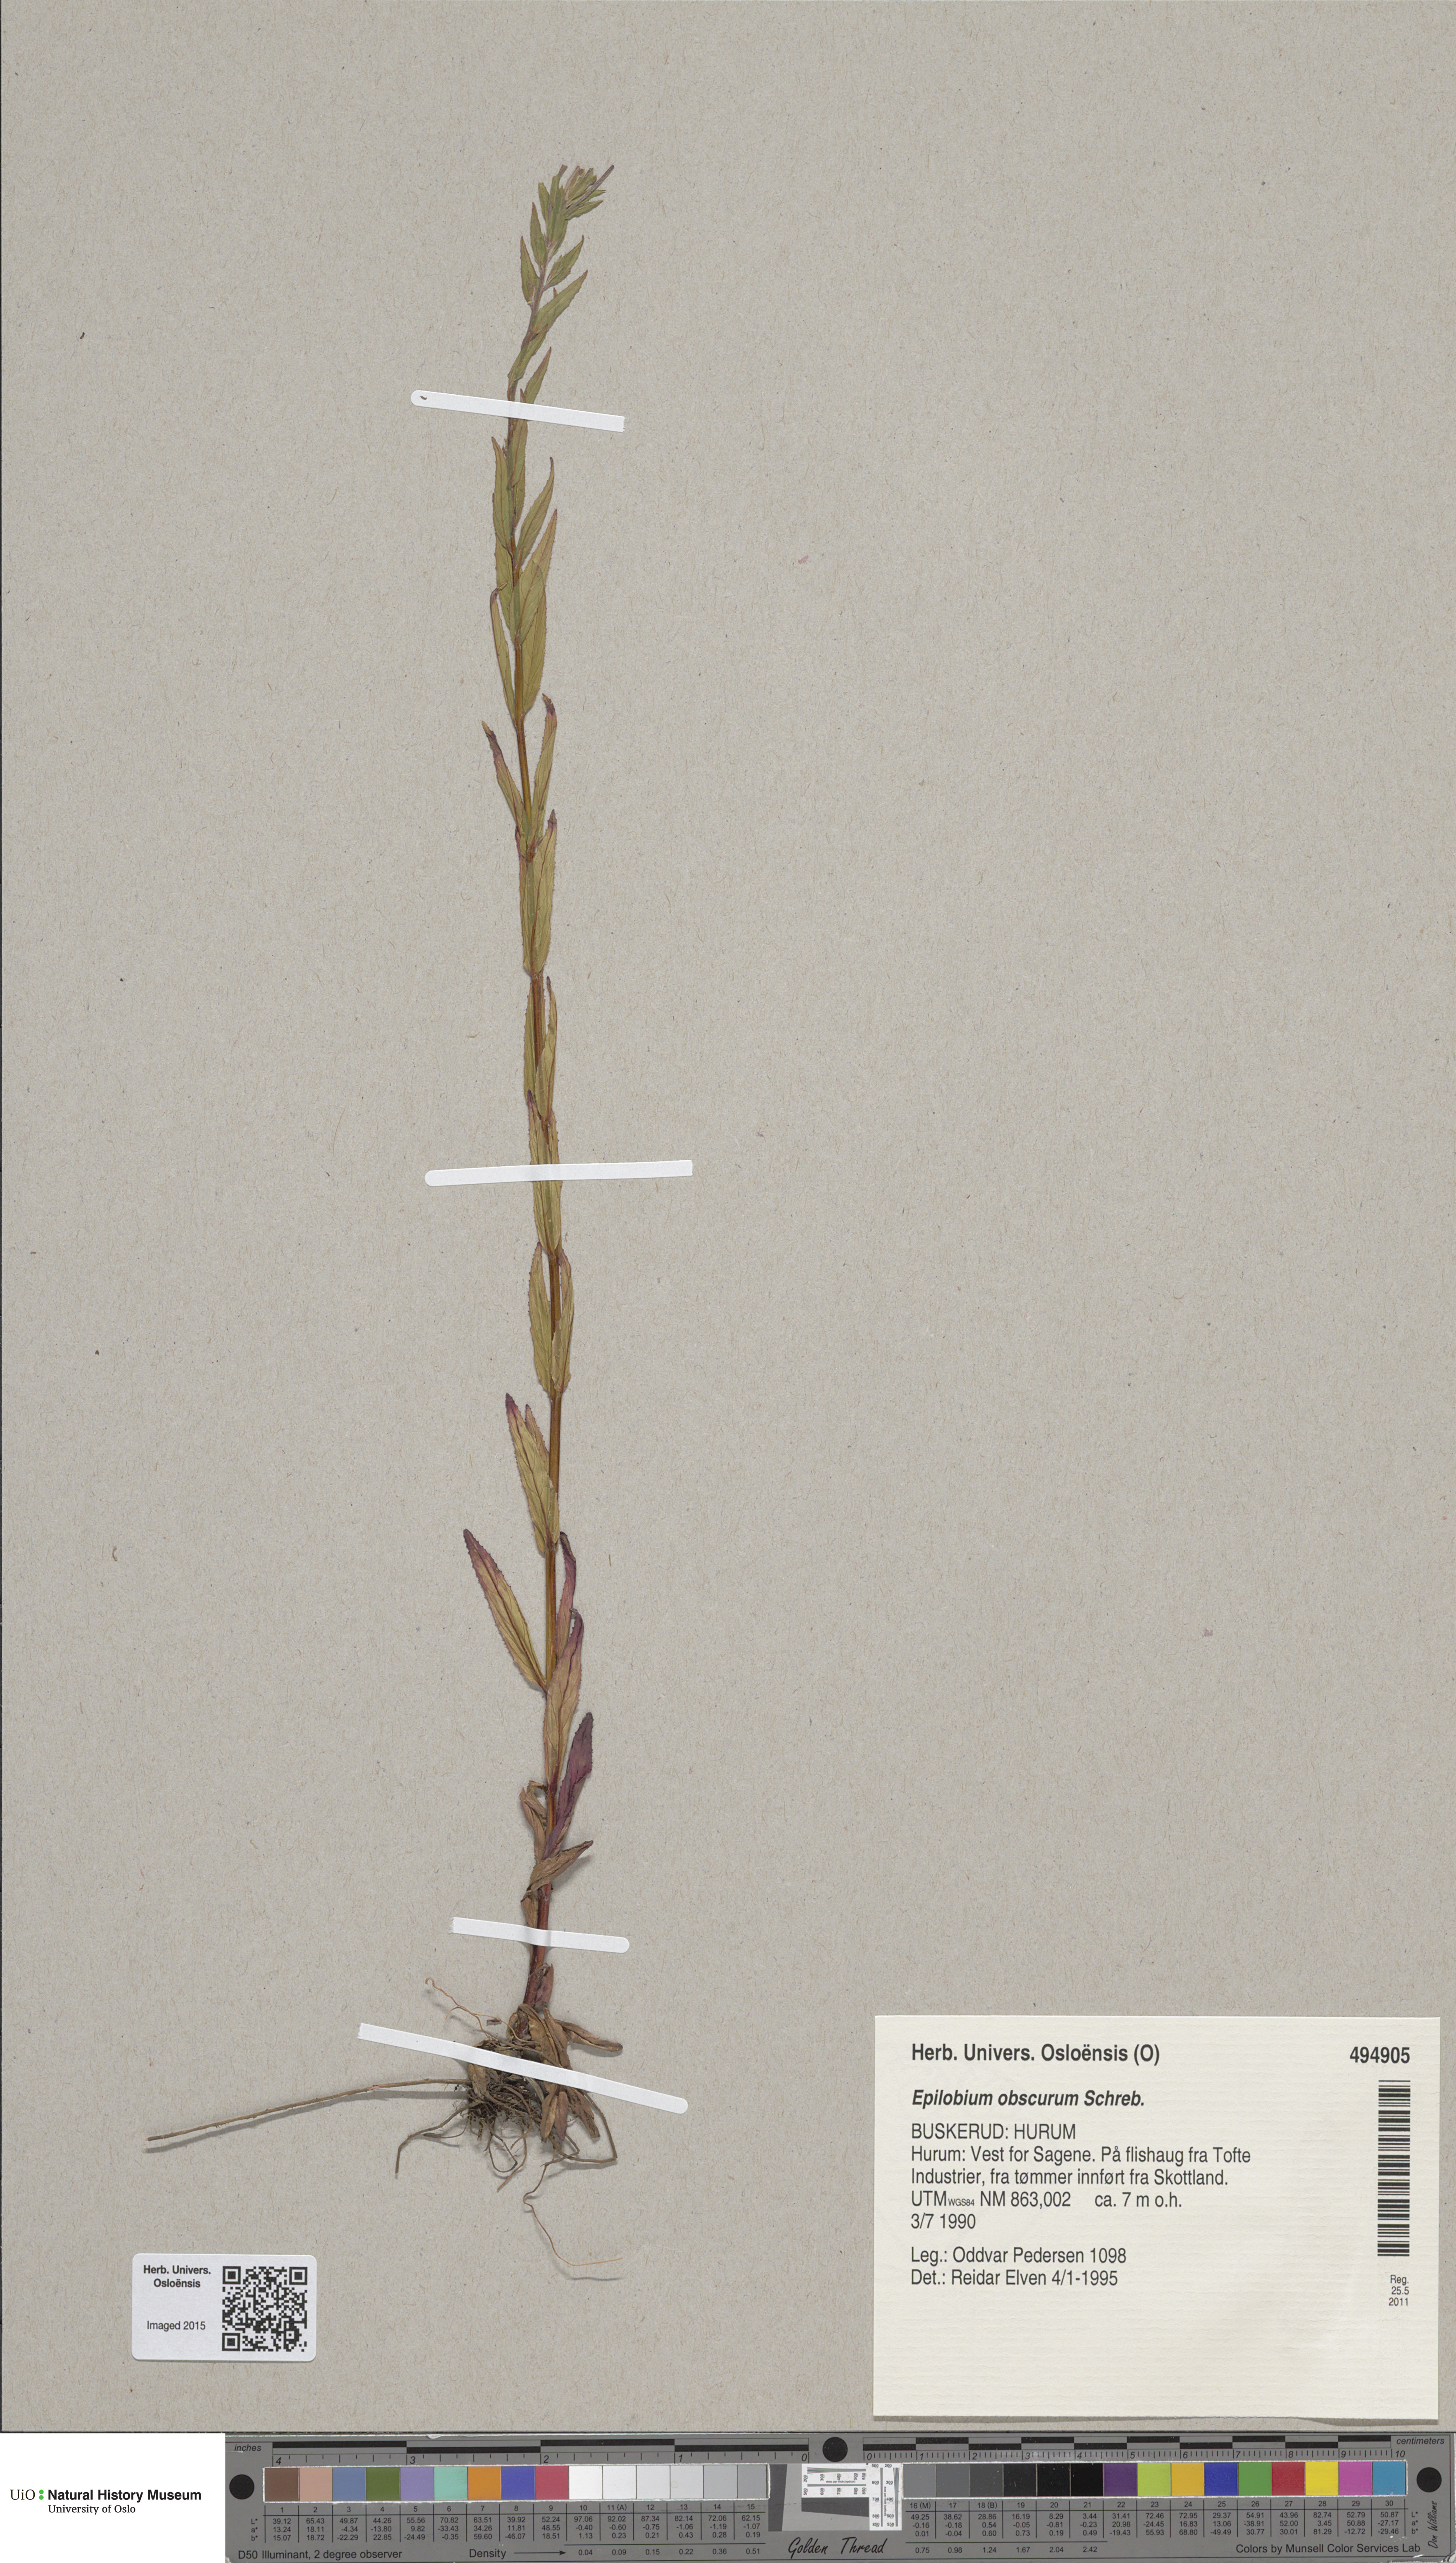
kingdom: Plantae
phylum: Tracheophyta
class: Magnoliopsida
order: Myrtales
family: Onagraceae
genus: Epilobium
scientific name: Epilobium obscurum
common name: Short-fruited willowherb
